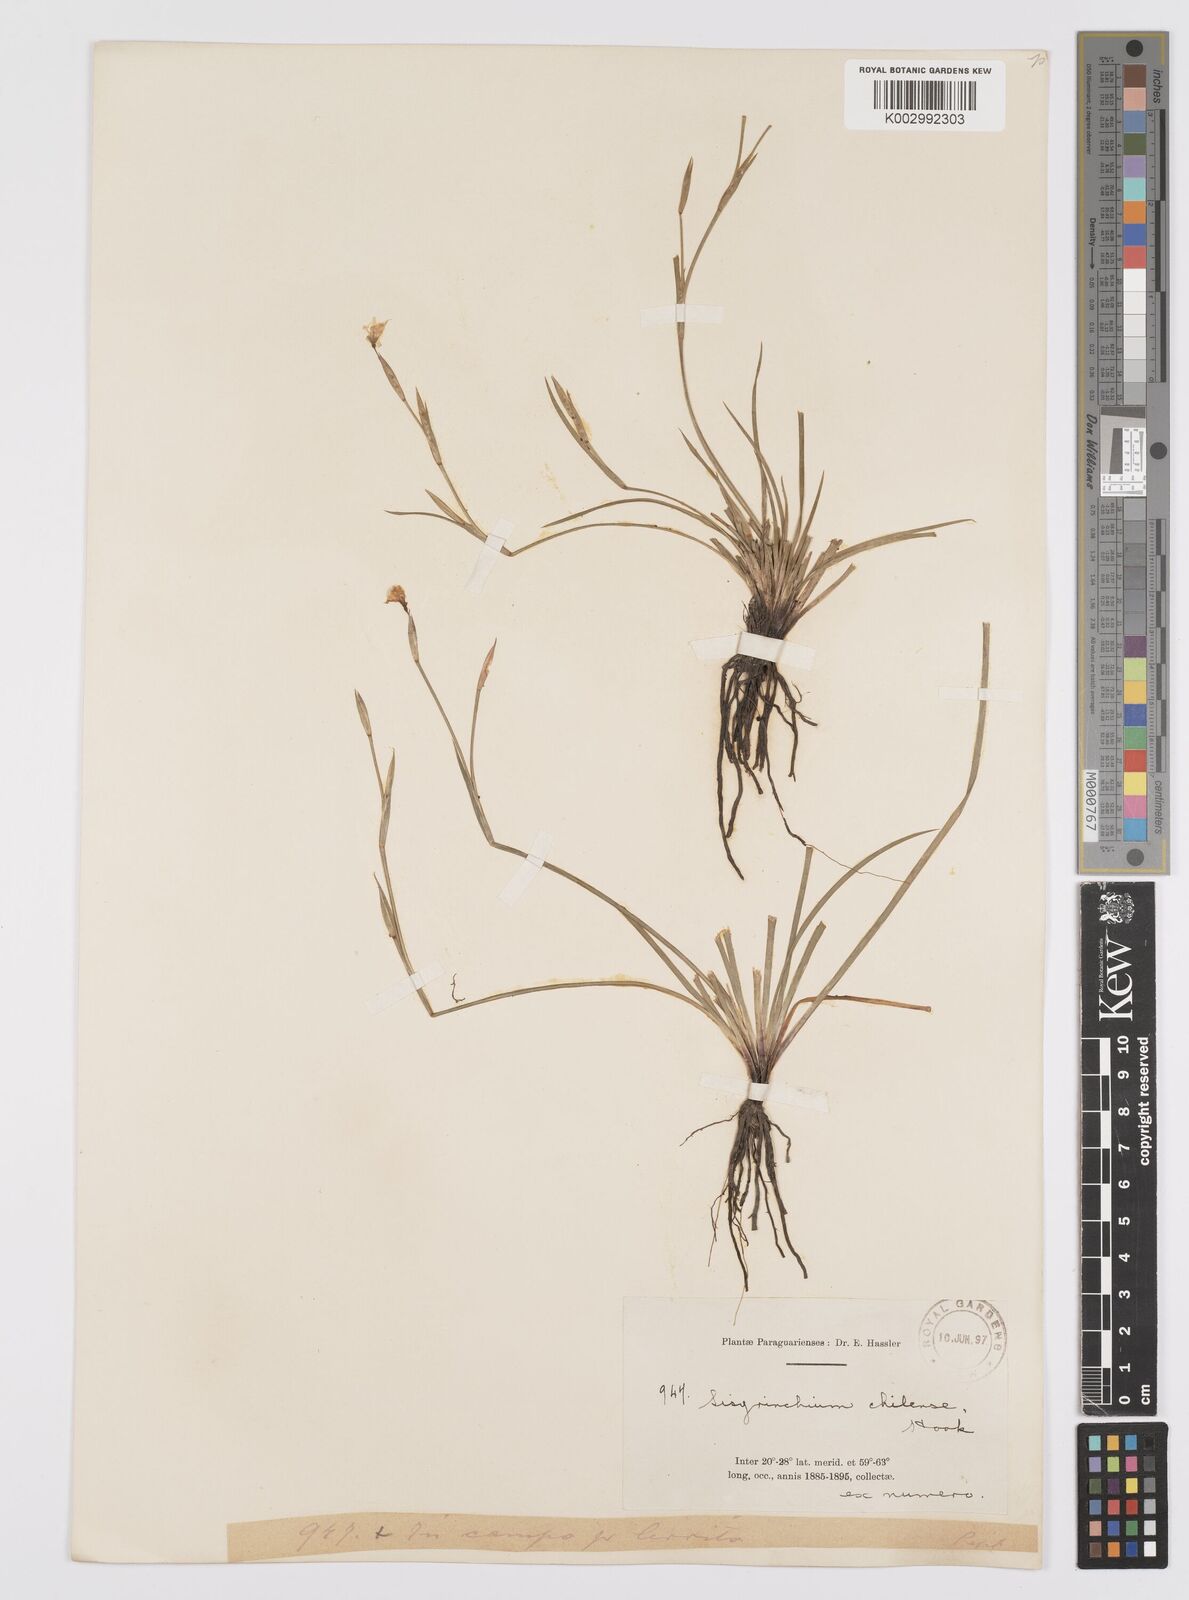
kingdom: Plantae
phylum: Tracheophyta
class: Liliopsida
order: Asparagales
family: Iridaceae
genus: Sisyrinchium
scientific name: Sisyrinchium chilense
